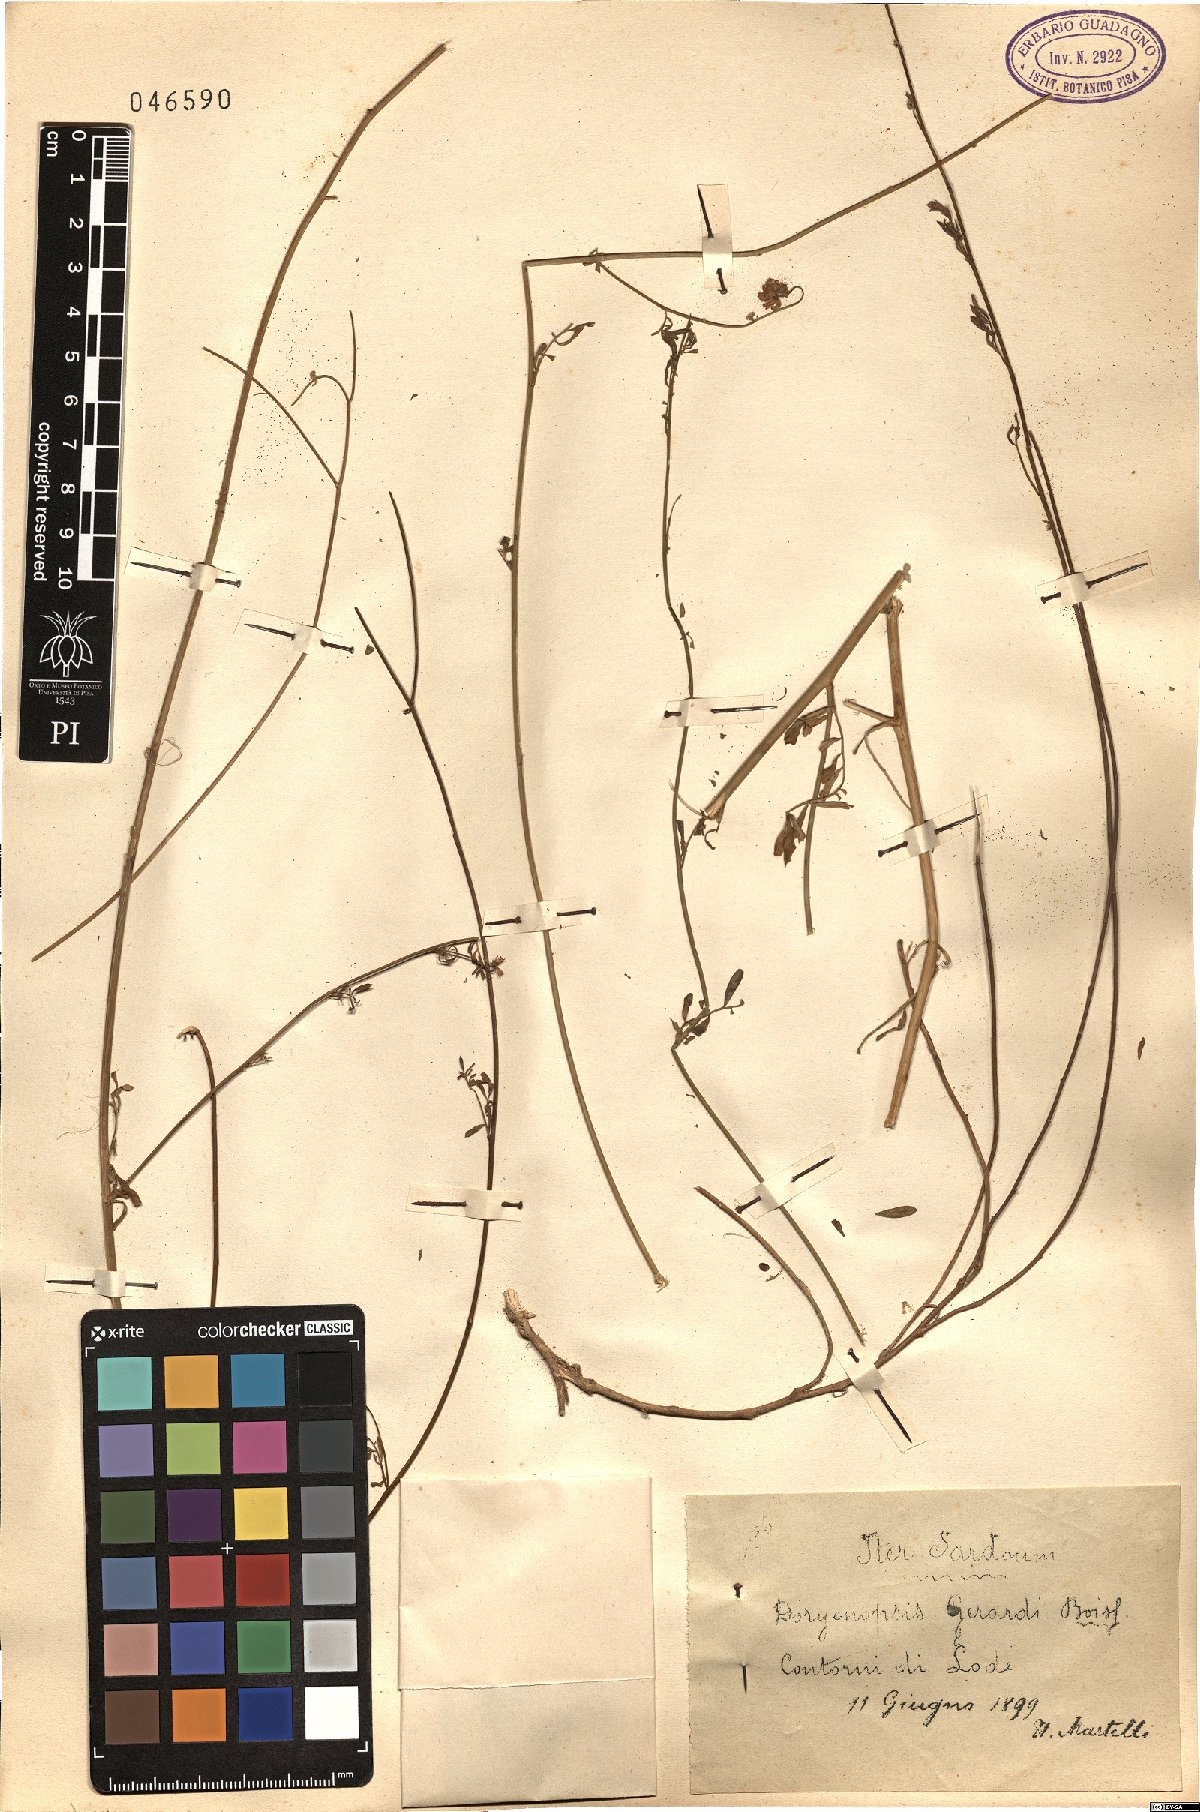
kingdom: Plantae
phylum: Tracheophyta
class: Magnoliopsida
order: Fabales
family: Fabaceae
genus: Dorycnopsis
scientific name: Dorycnopsis gerardi
